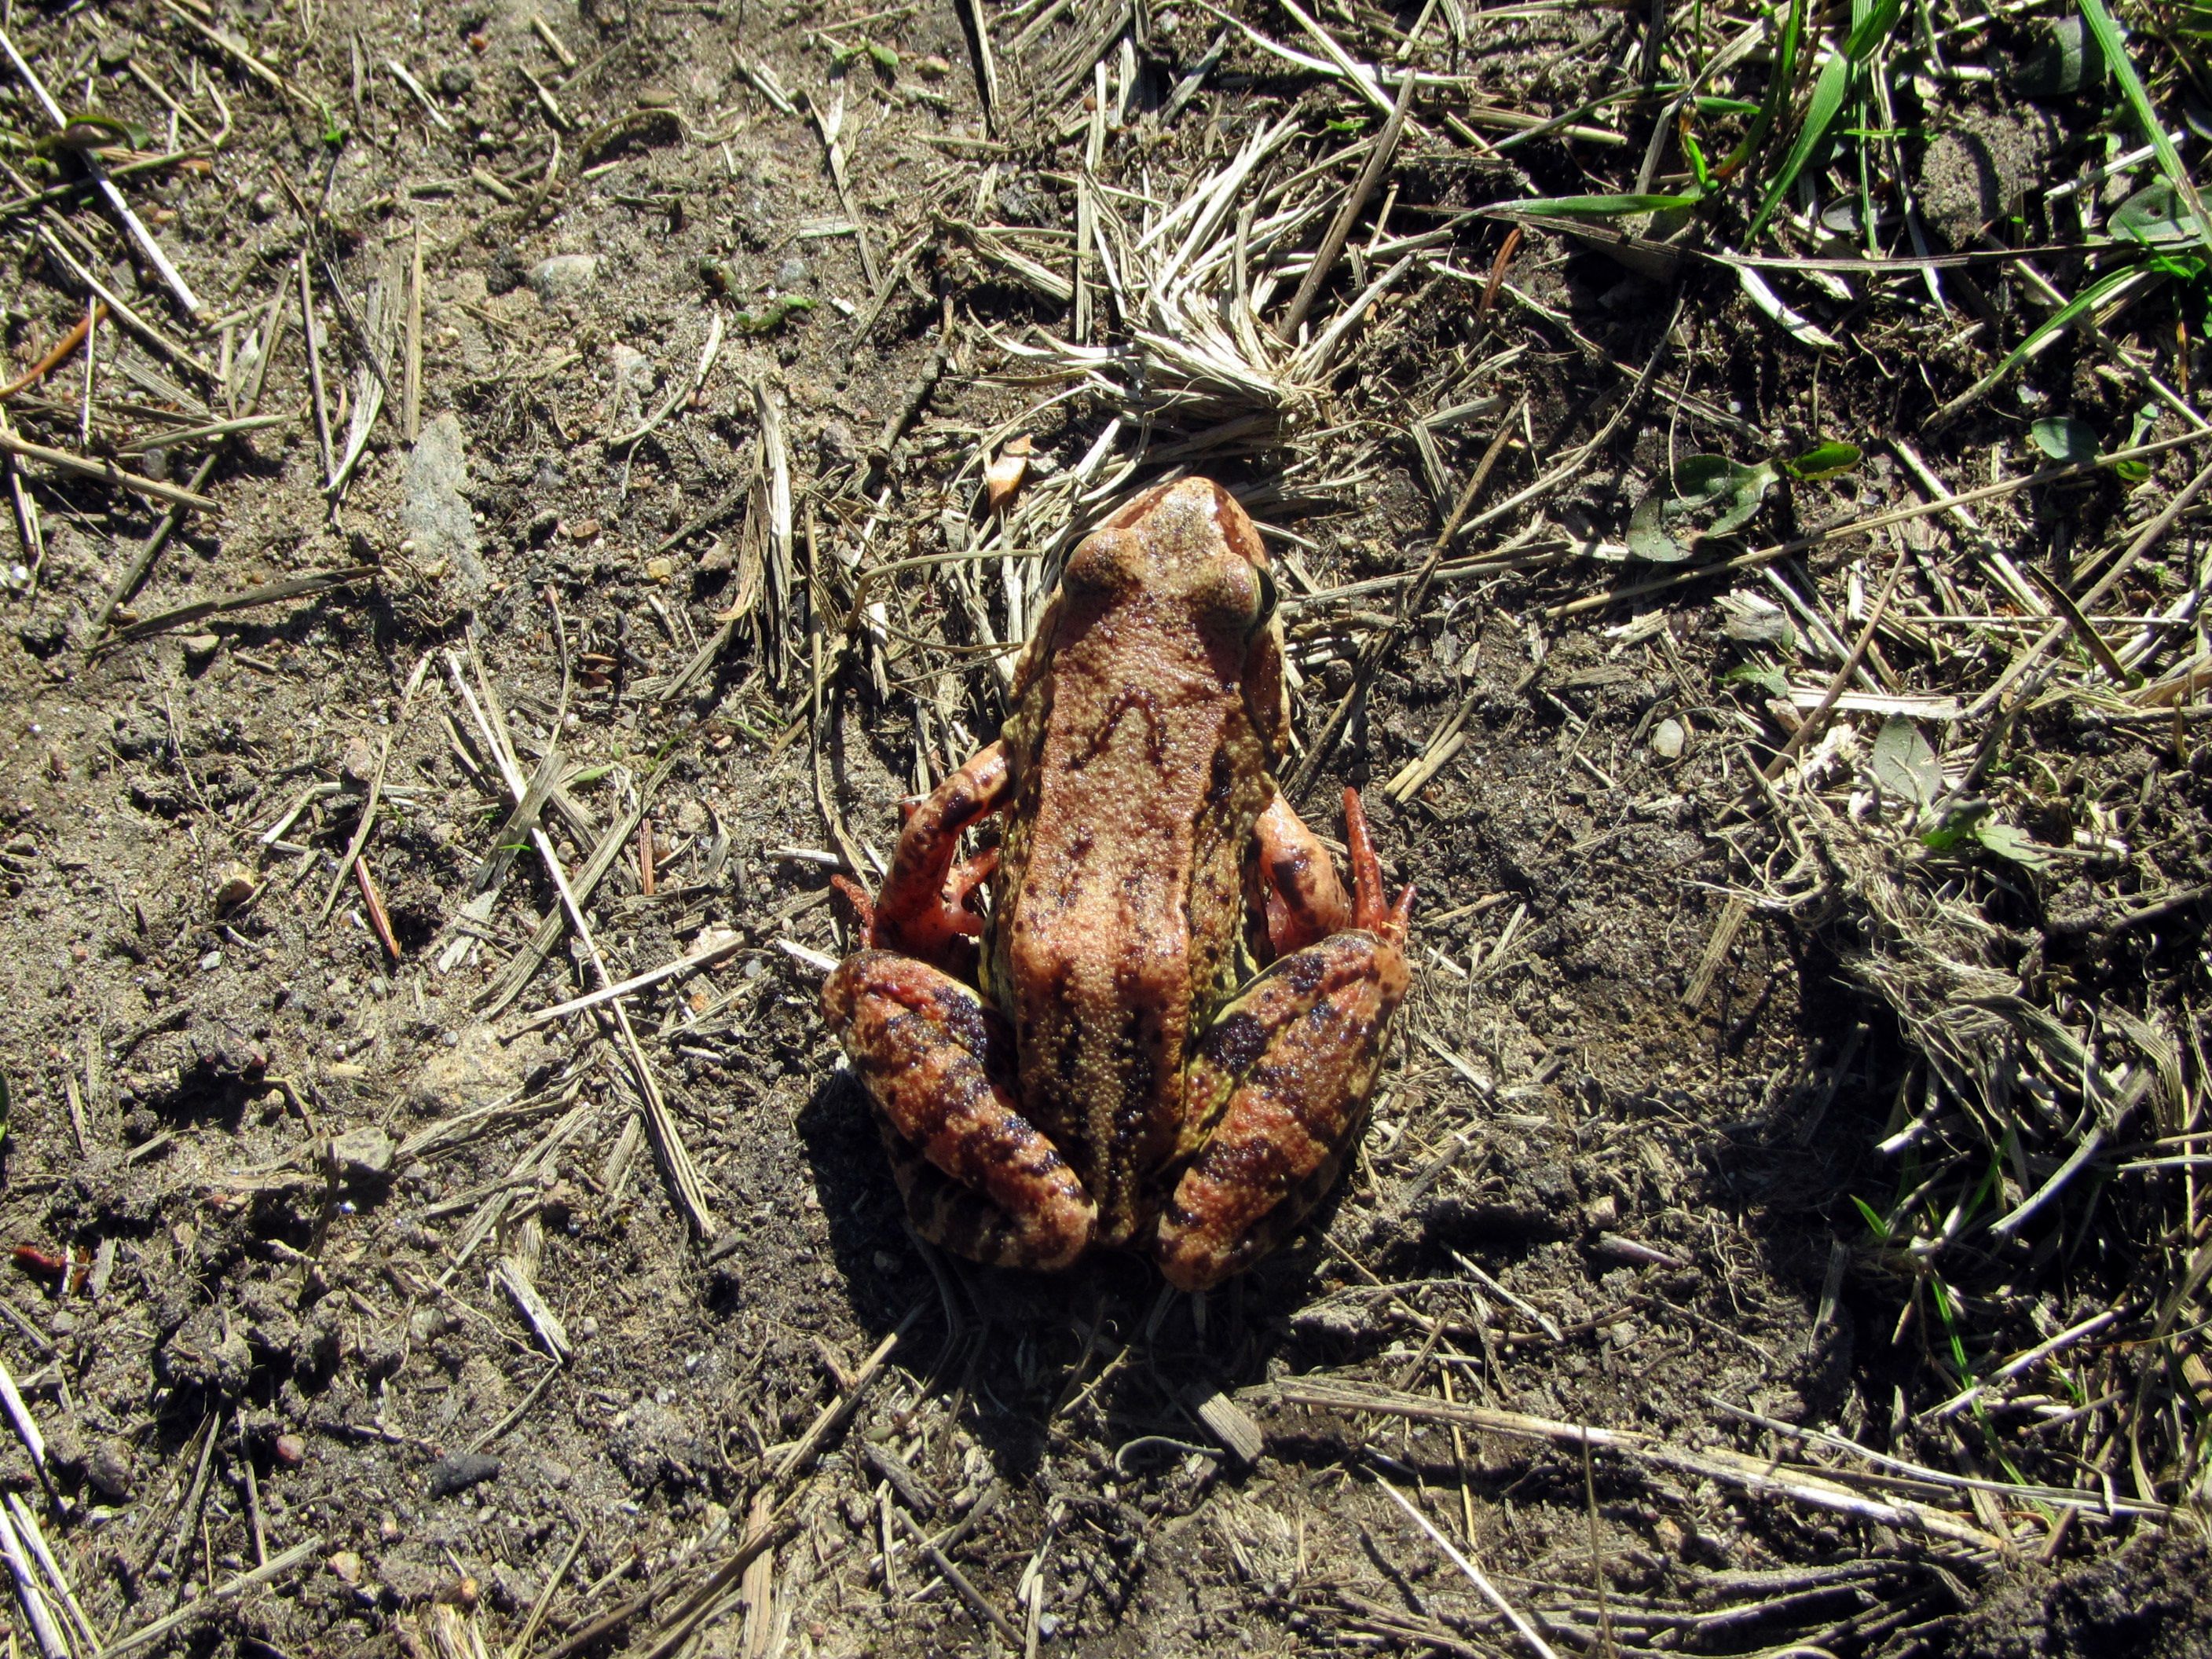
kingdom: Animalia
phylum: Chordata
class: Amphibia
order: Anura
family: Ranidae
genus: Rana
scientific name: Rana temporaria
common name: Common frog
